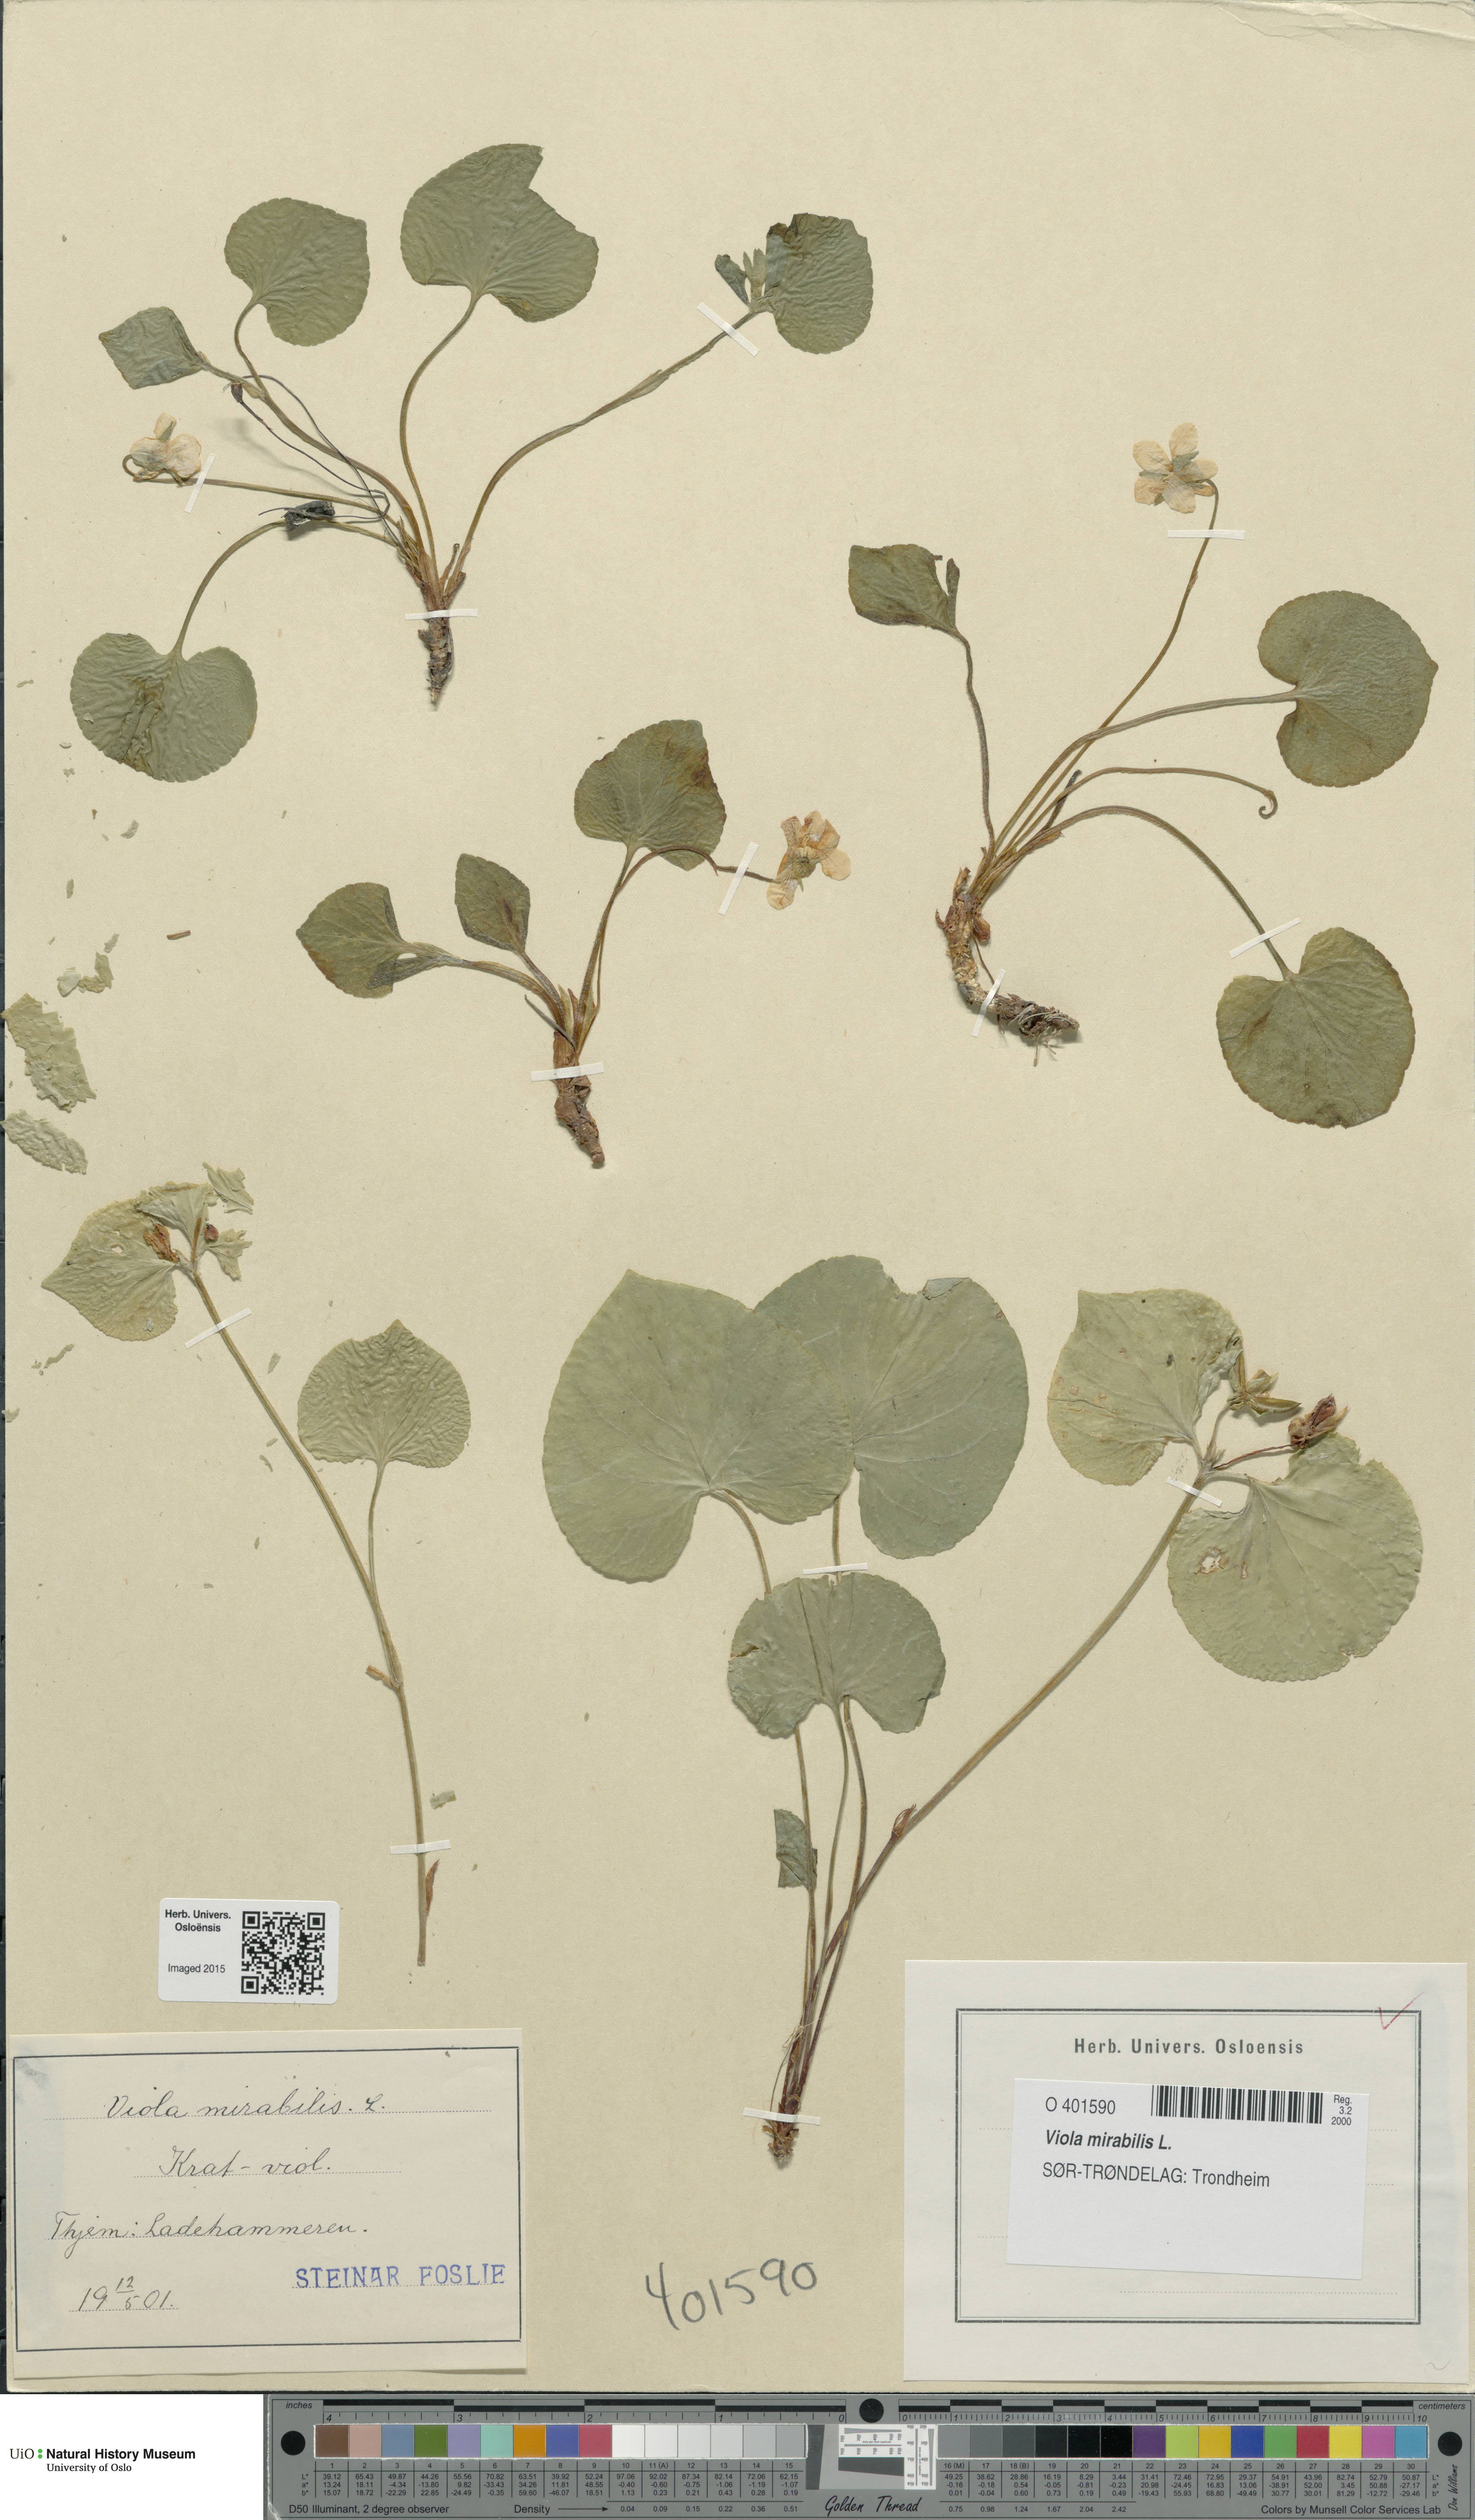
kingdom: Plantae
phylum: Tracheophyta
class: Magnoliopsida
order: Malpighiales
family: Violaceae
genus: Viola
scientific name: Viola mirabilis
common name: Wonder violet
